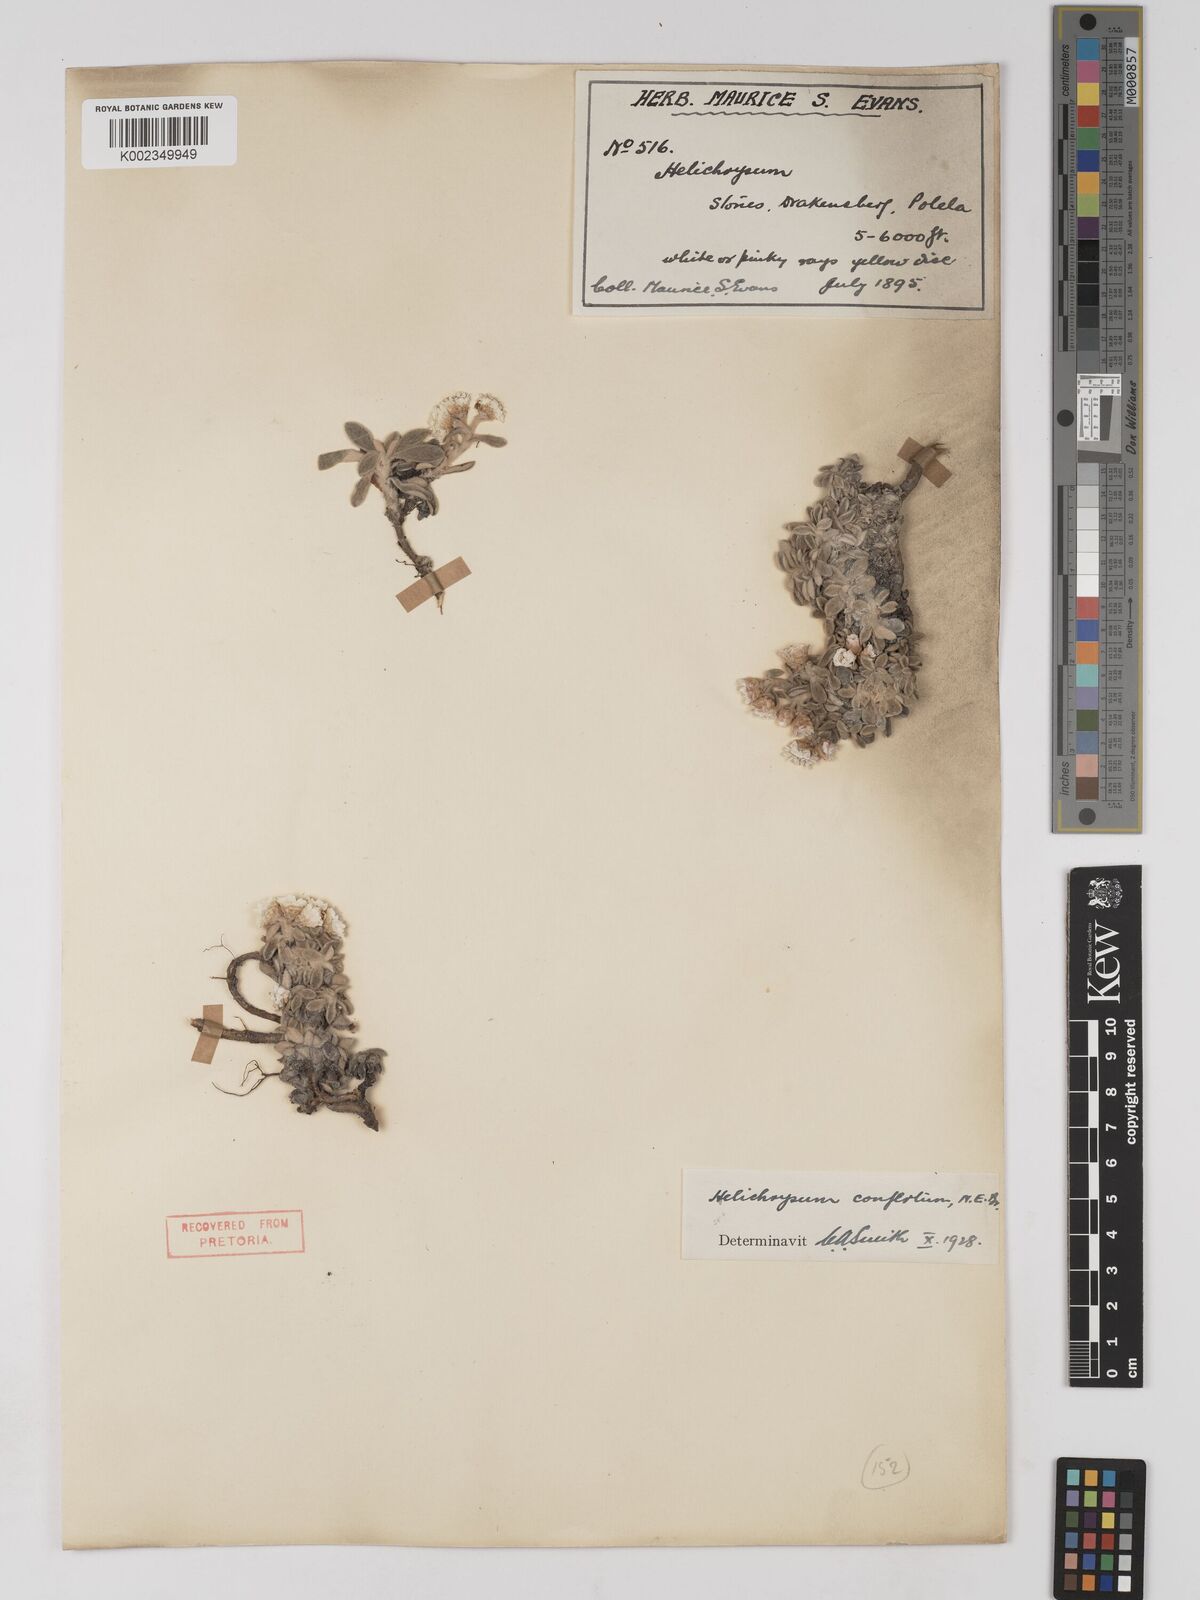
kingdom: Plantae
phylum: Tracheophyta
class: Magnoliopsida
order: Asterales
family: Asteraceae
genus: Helichrysum
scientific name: Helichrysum confertum
